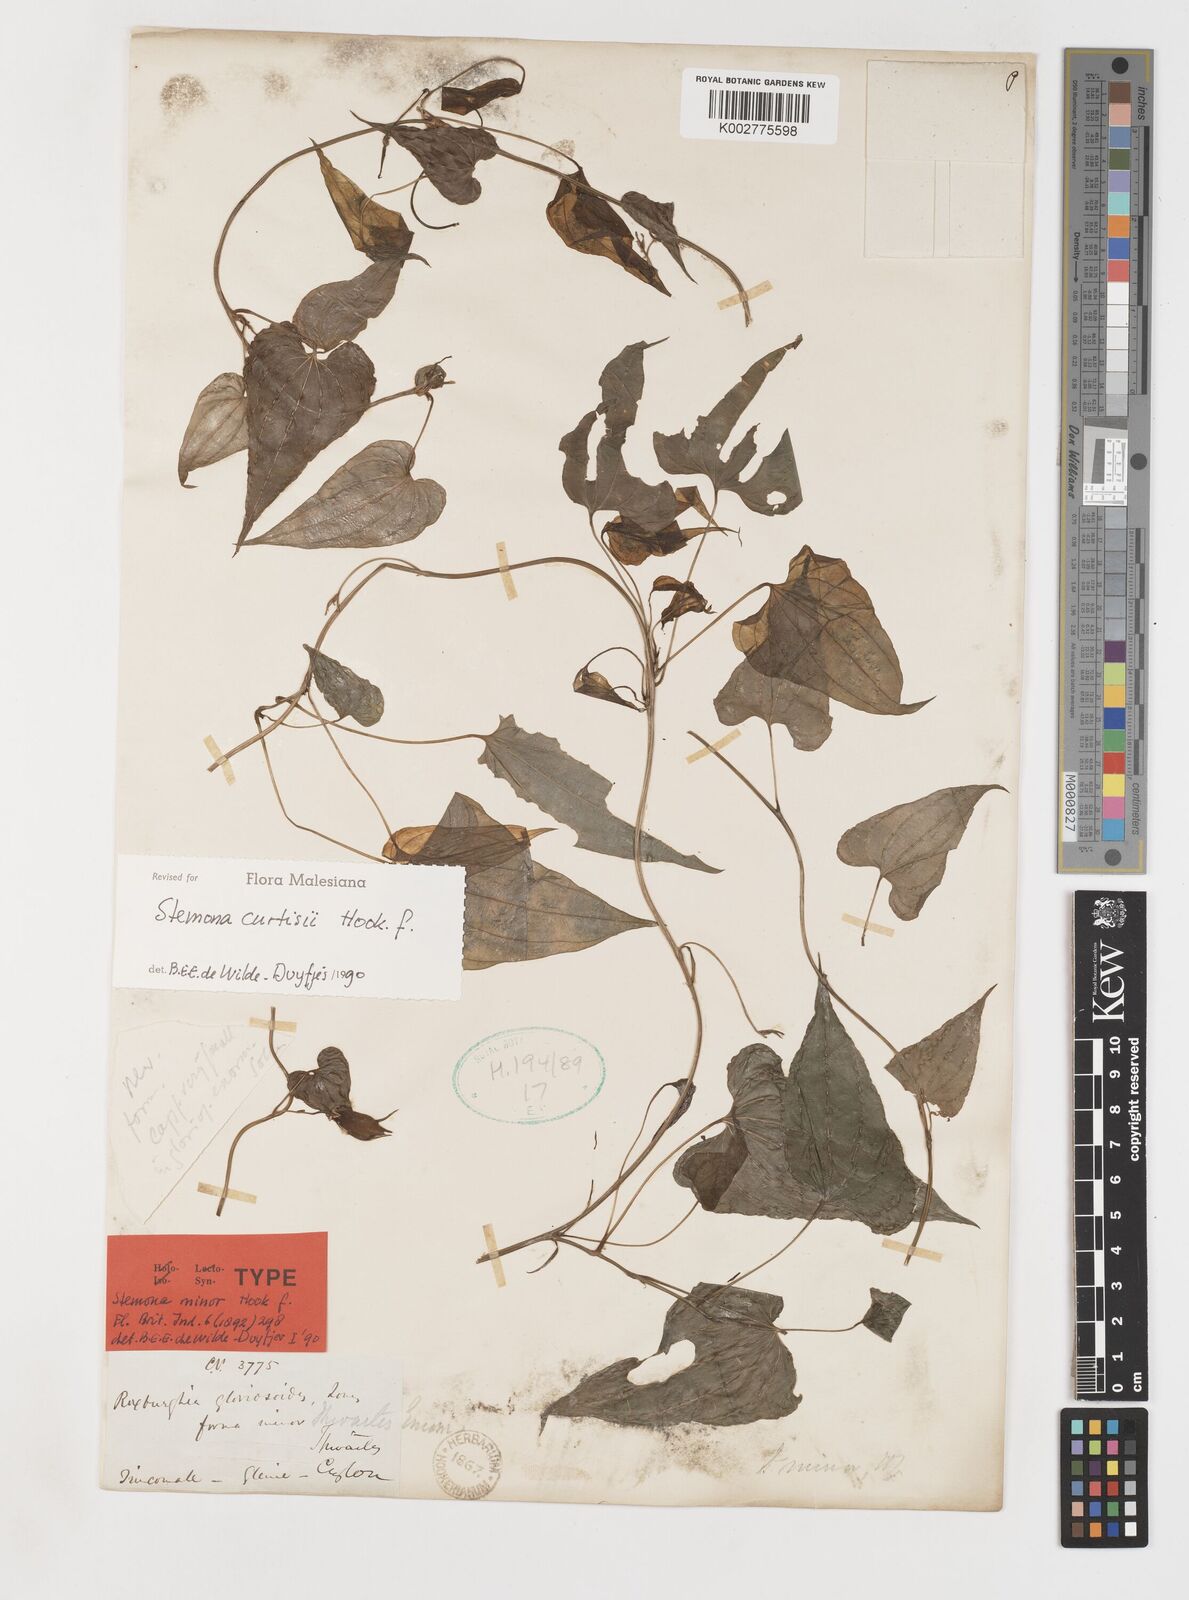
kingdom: Plantae
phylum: Tracheophyta
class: Liliopsida
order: Pandanales
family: Stemonaceae
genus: Stemona
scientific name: Stemona tuberosa
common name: Stemona
